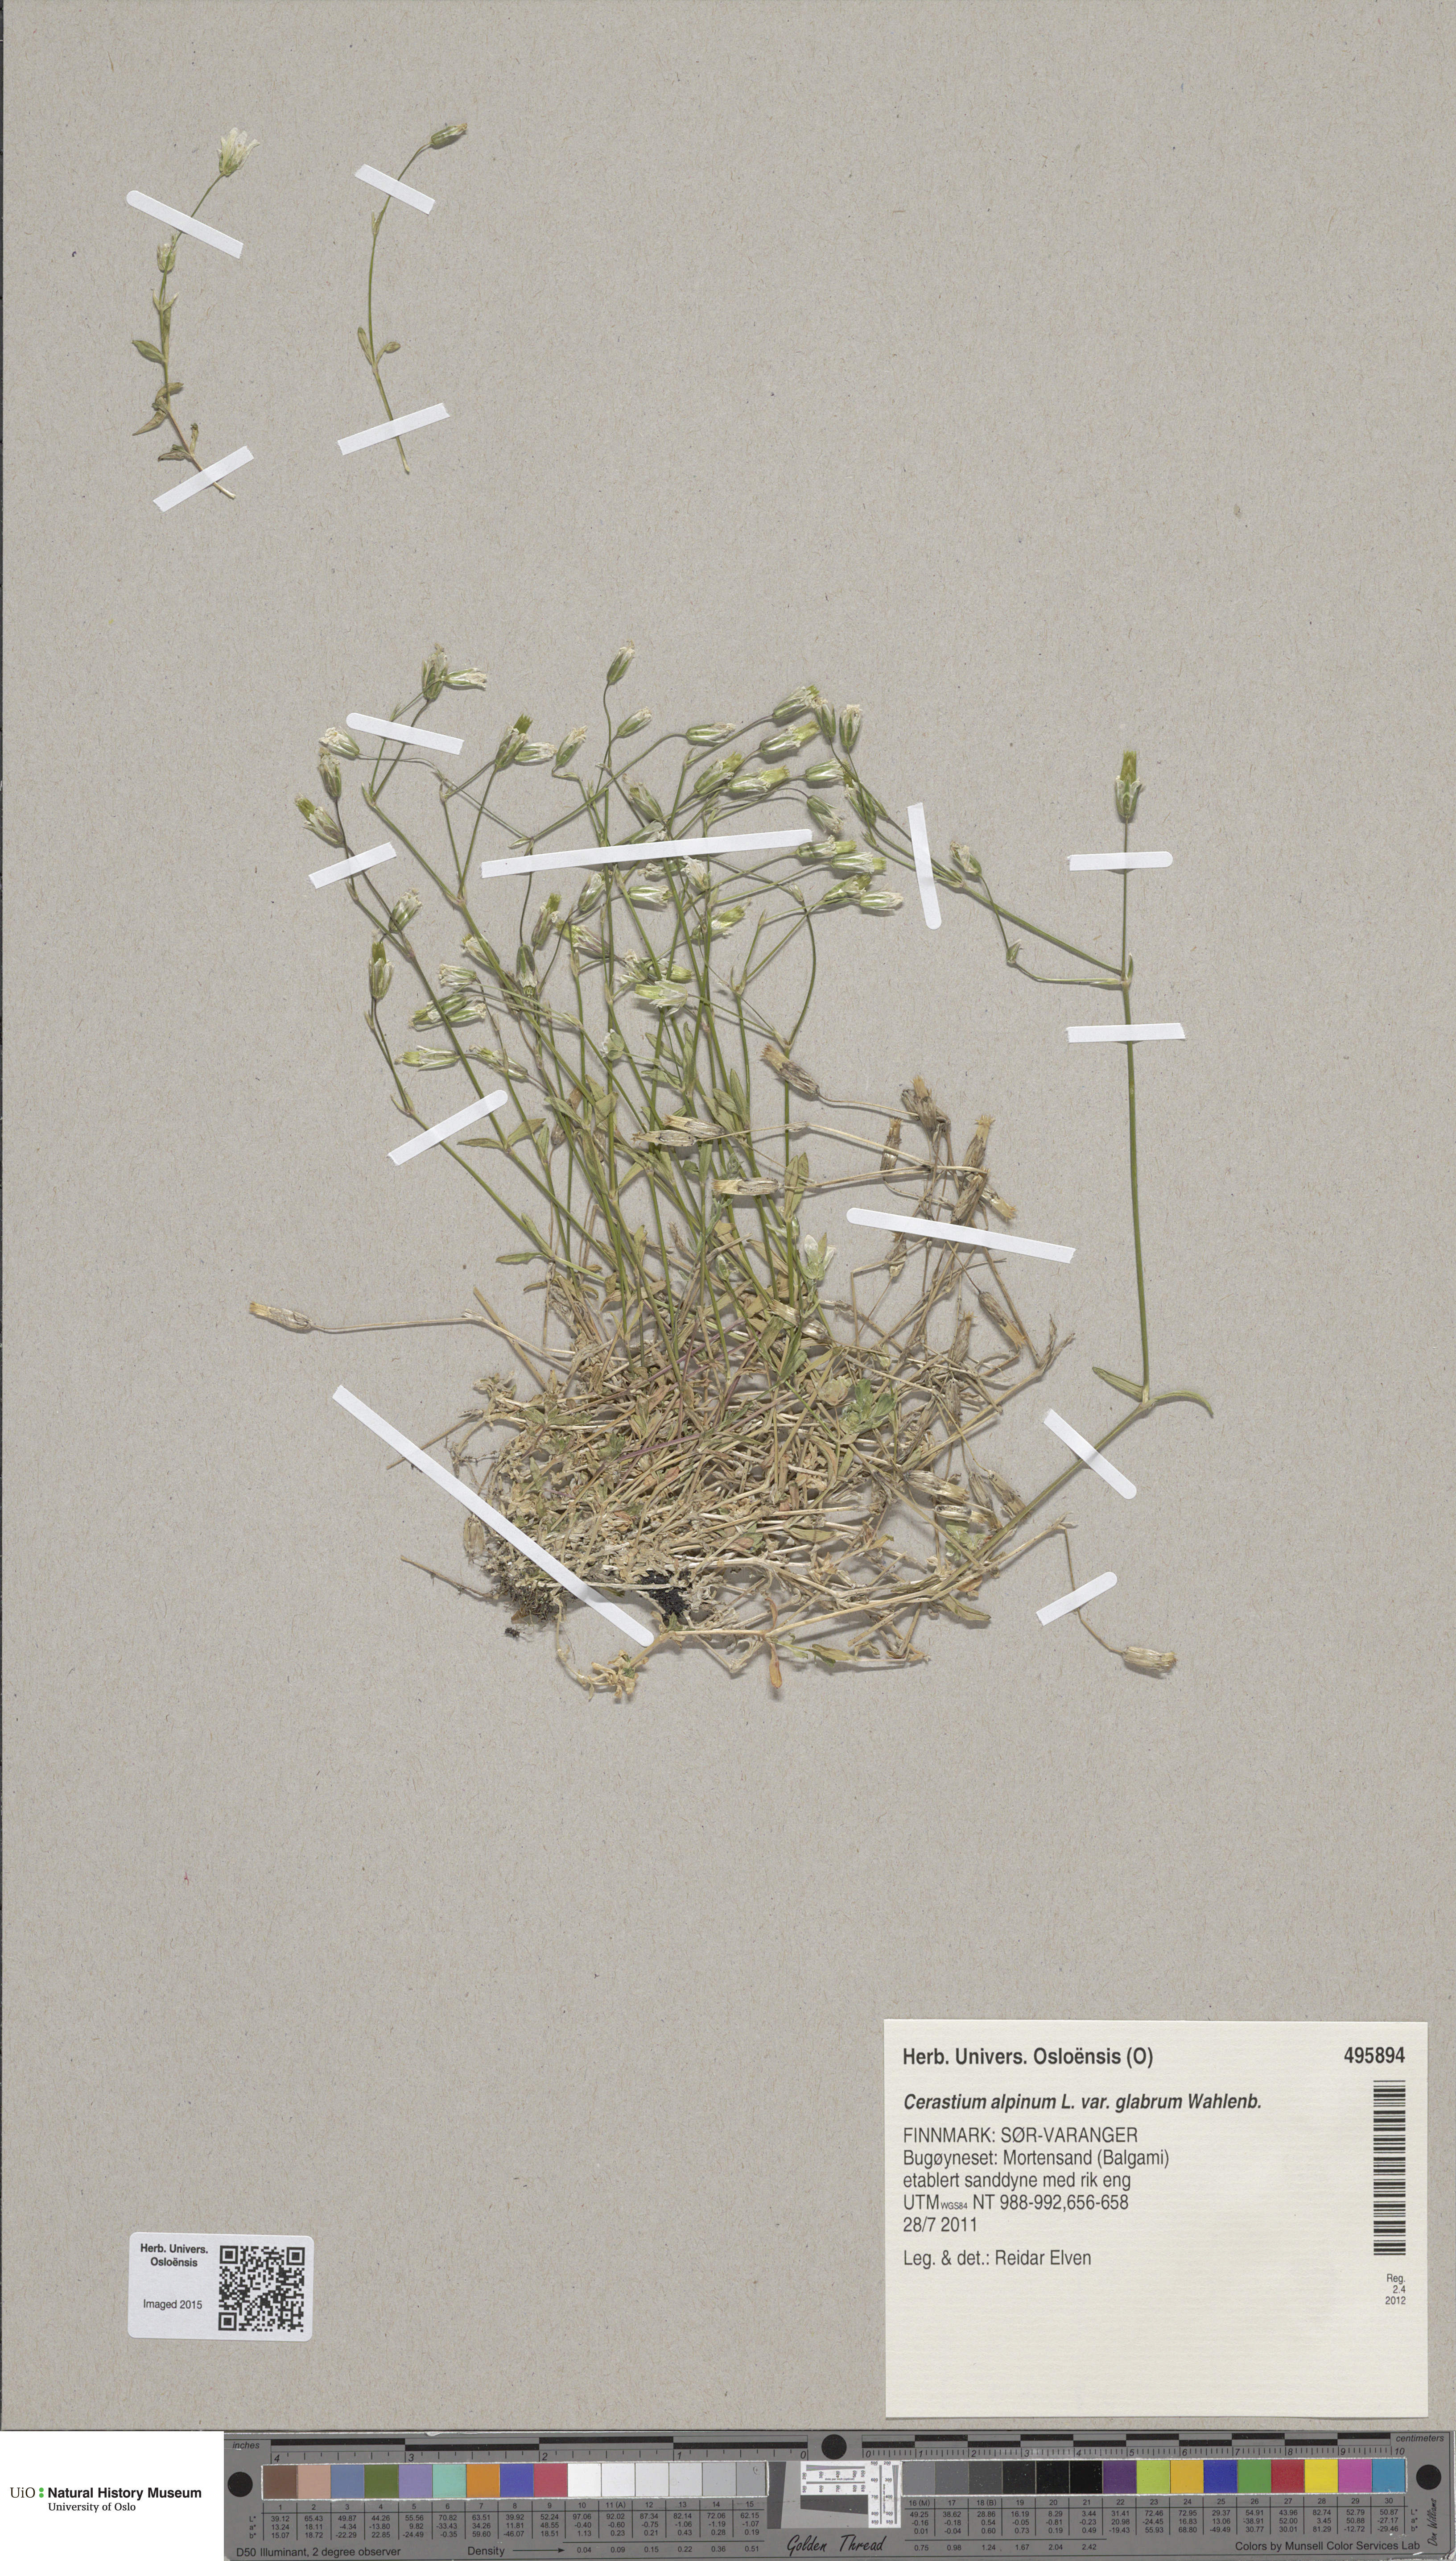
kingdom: Plantae
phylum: Tracheophyta
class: Magnoliopsida
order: Caryophyllales
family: Caryophyllaceae
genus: Cerastium
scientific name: Cerastium alpinum
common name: Alpine mouse-ear
